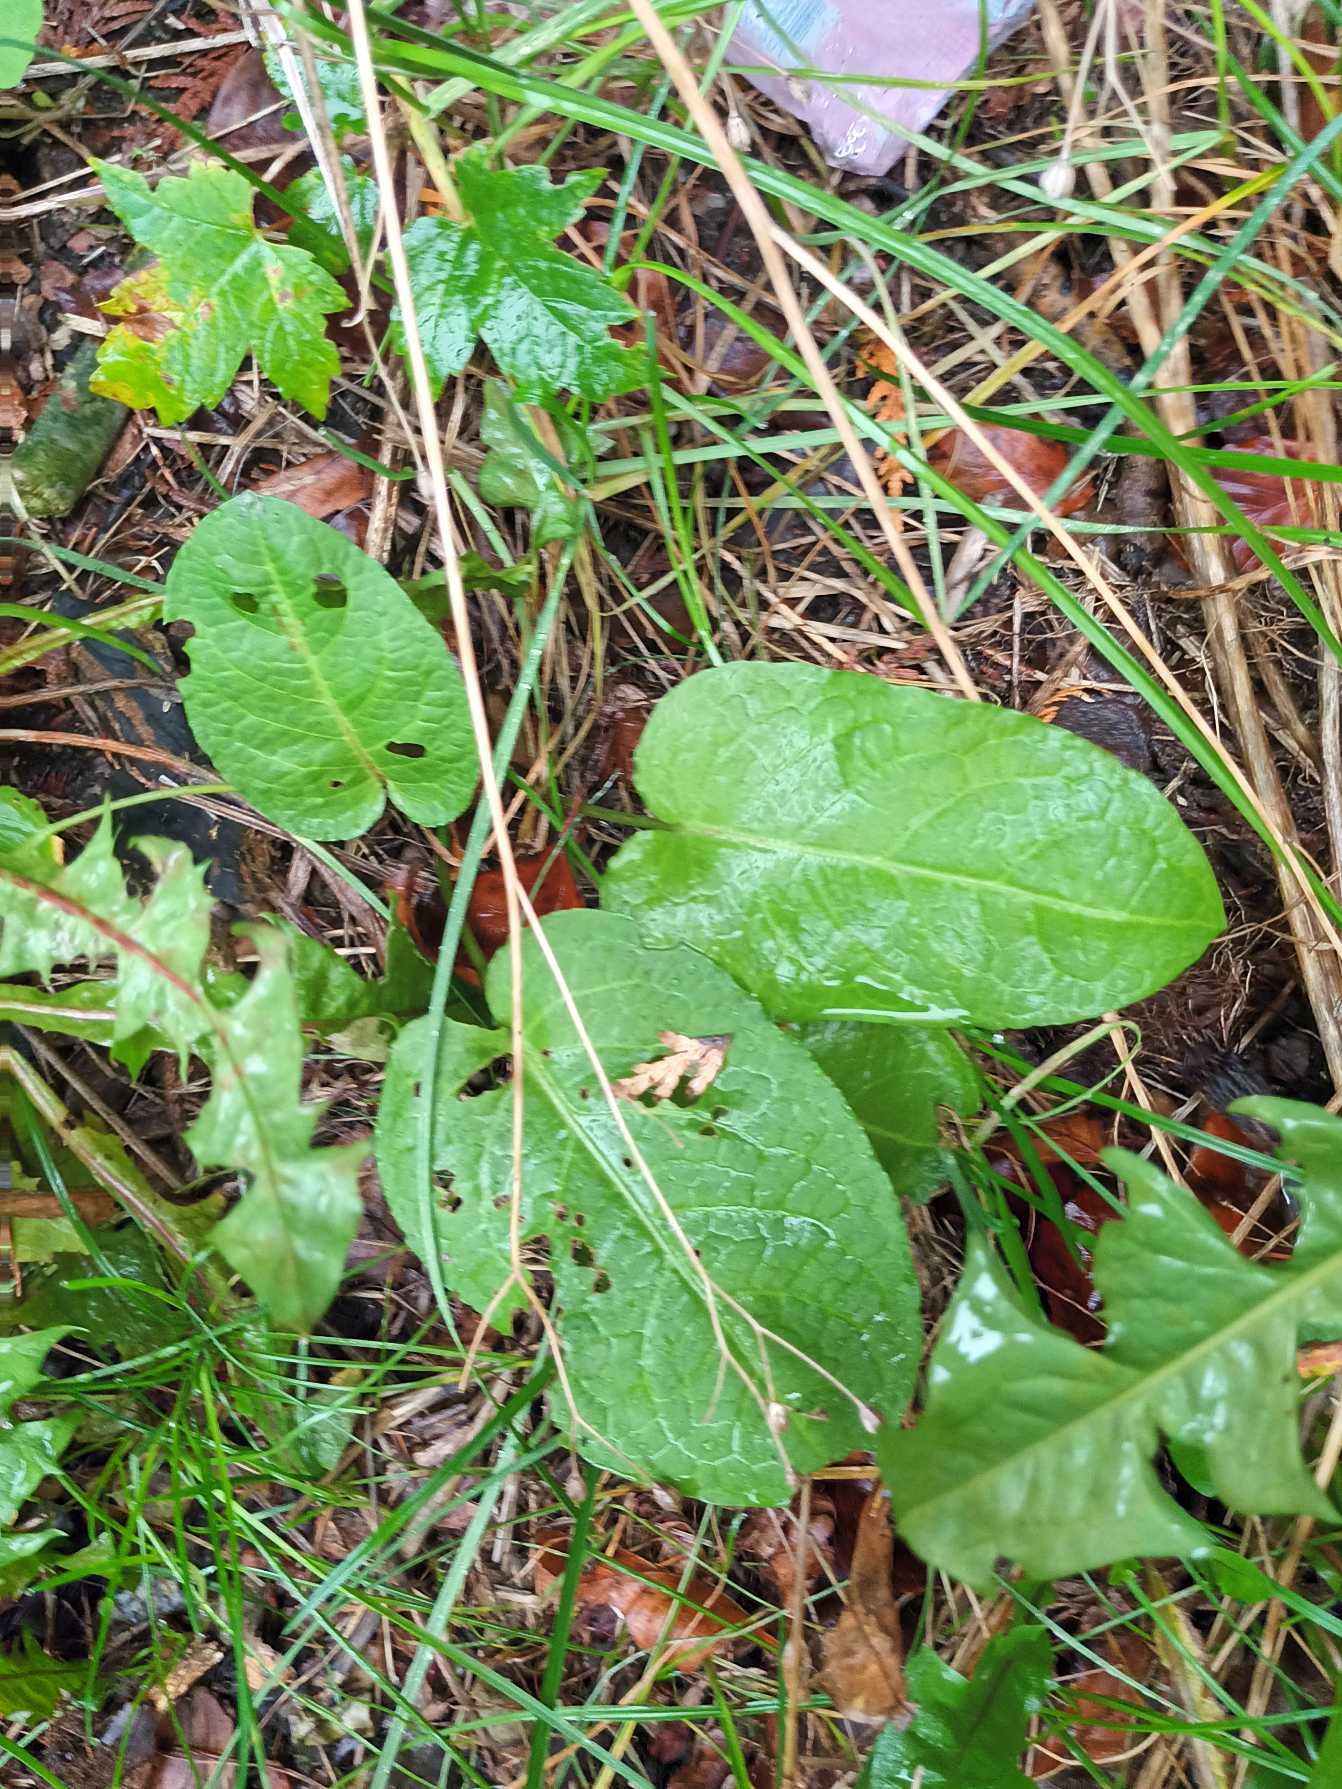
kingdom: Plantae
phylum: Tracheophyta
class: Magnoliopsida
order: Caryophyllales
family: Polygonaceae
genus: Rumex
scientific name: Rumex obtusifolius
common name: Butbladet skræppe
